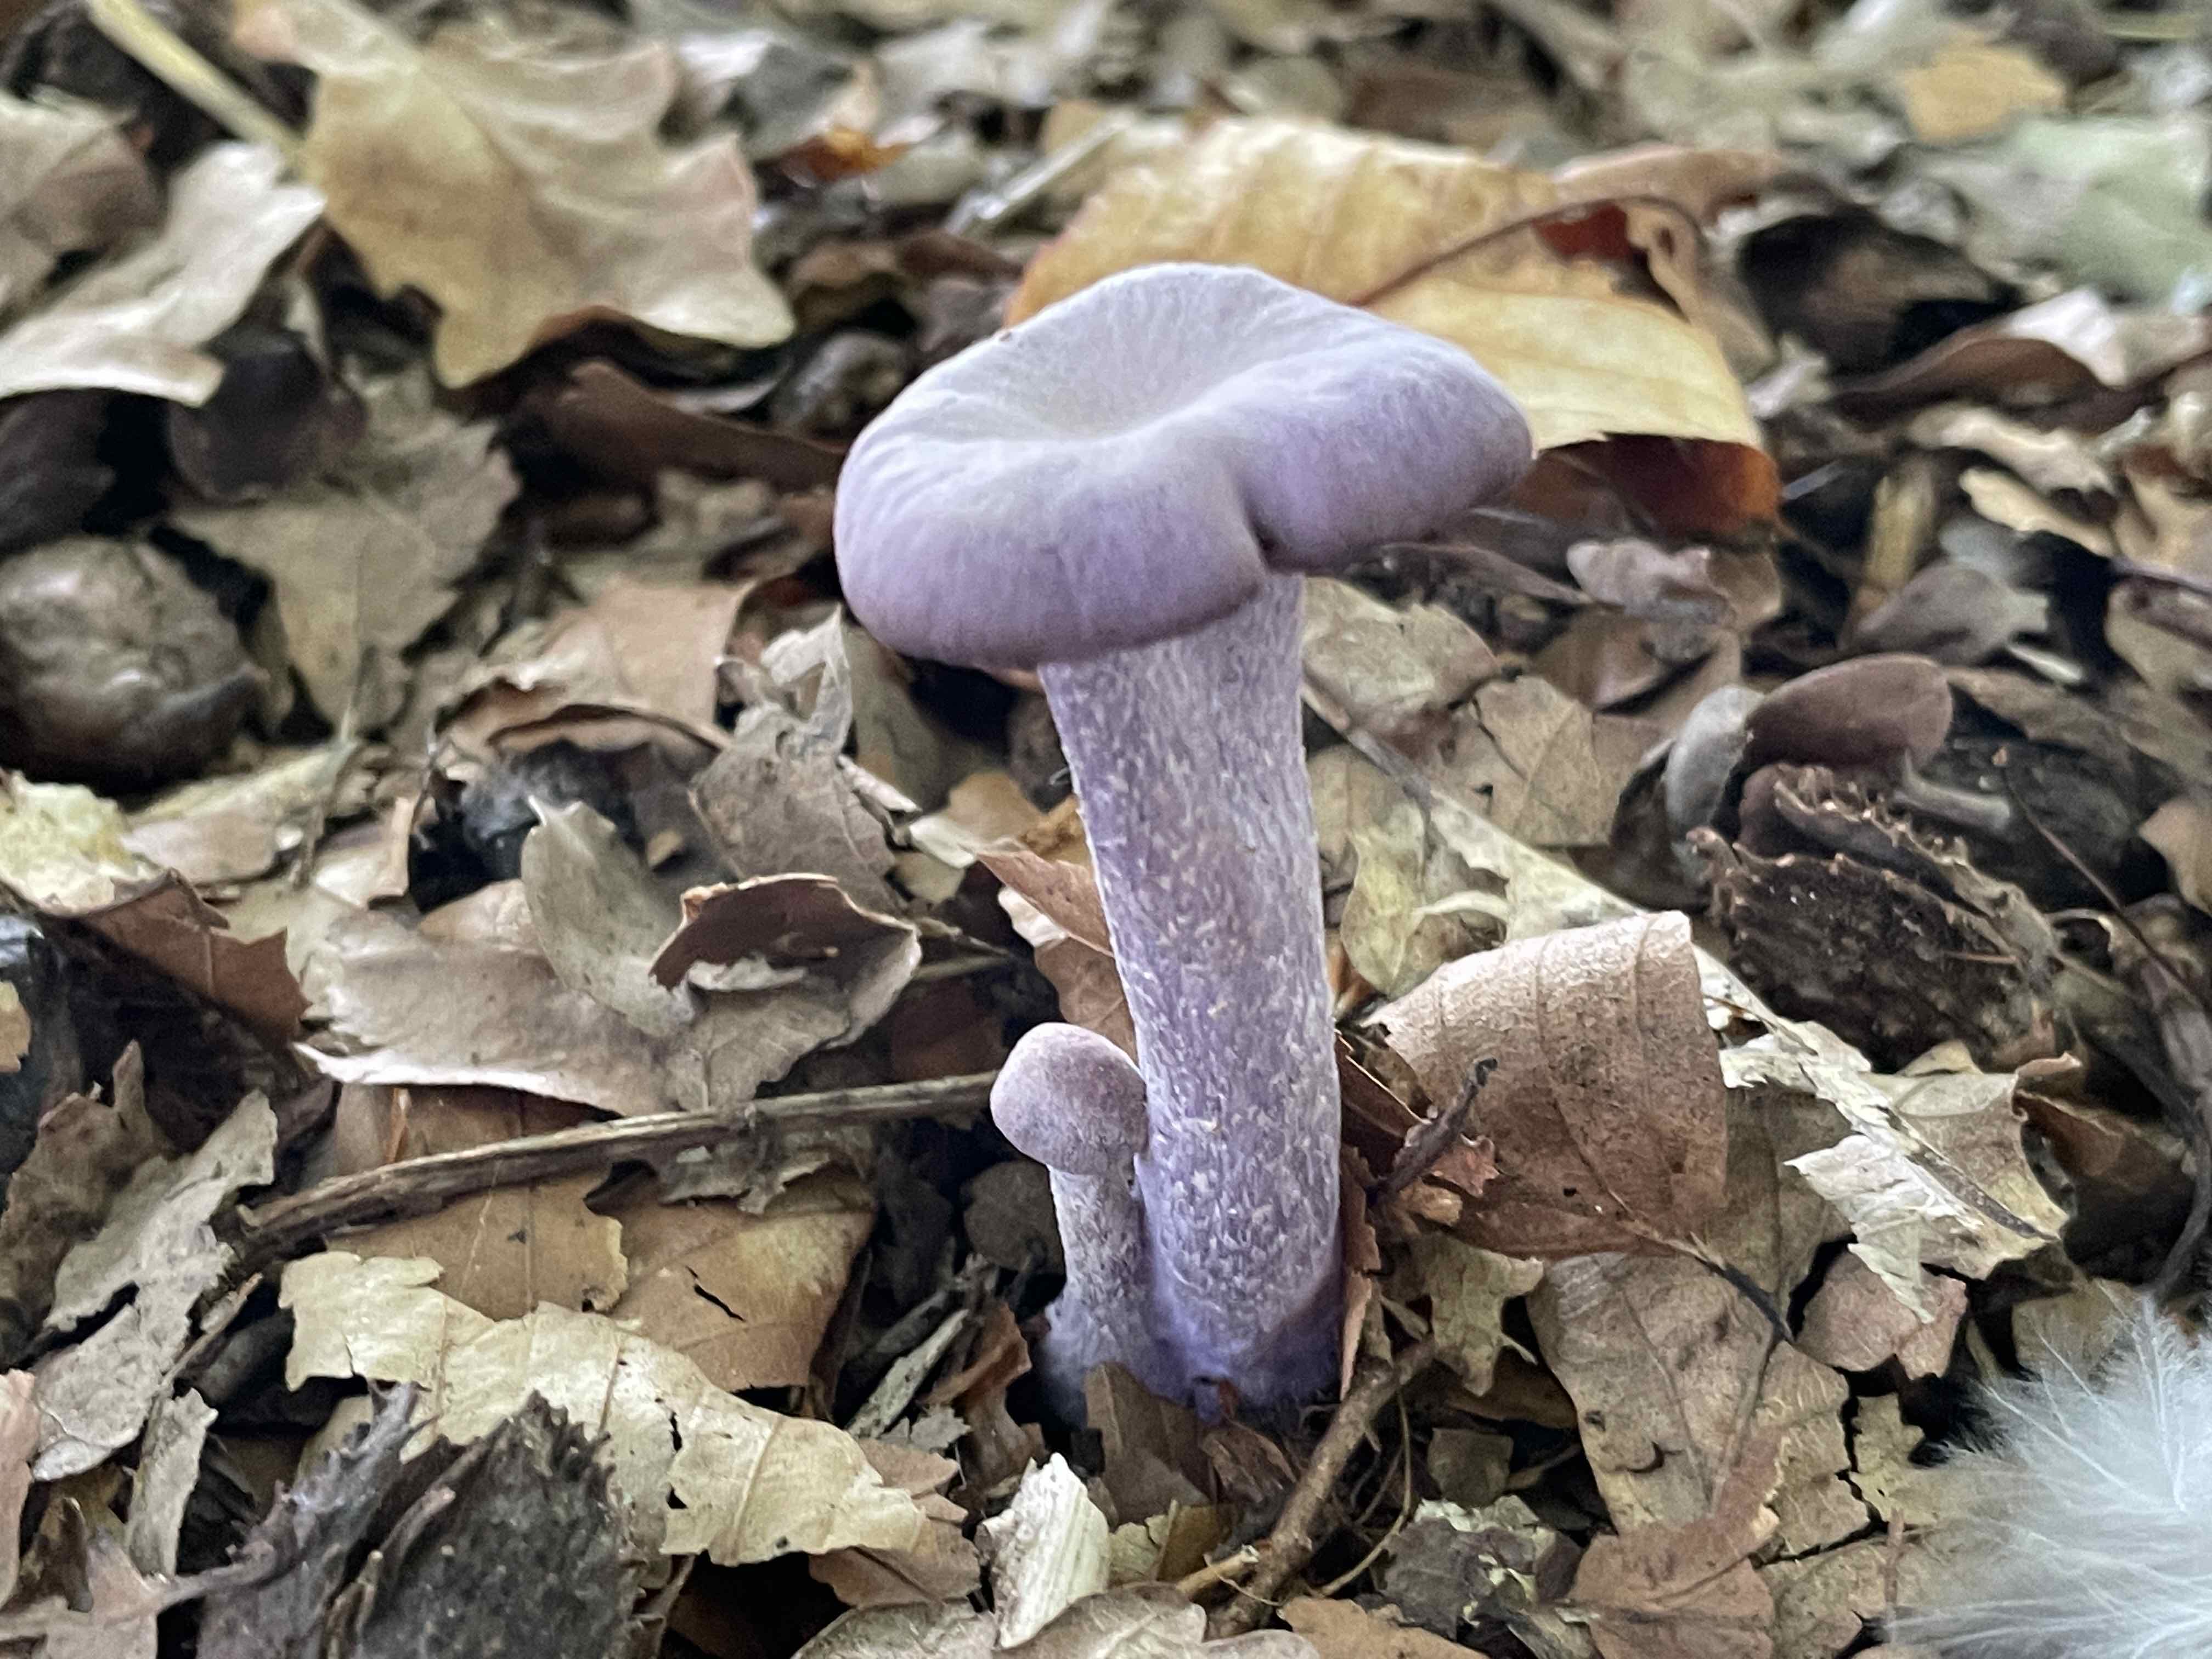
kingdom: Fungi
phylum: Basidiomycota
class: Agaricomycetes
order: Agaricales
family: Hydnangiaceae
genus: Laccaria
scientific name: Laccaria amethystina
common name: violet ametysthat
